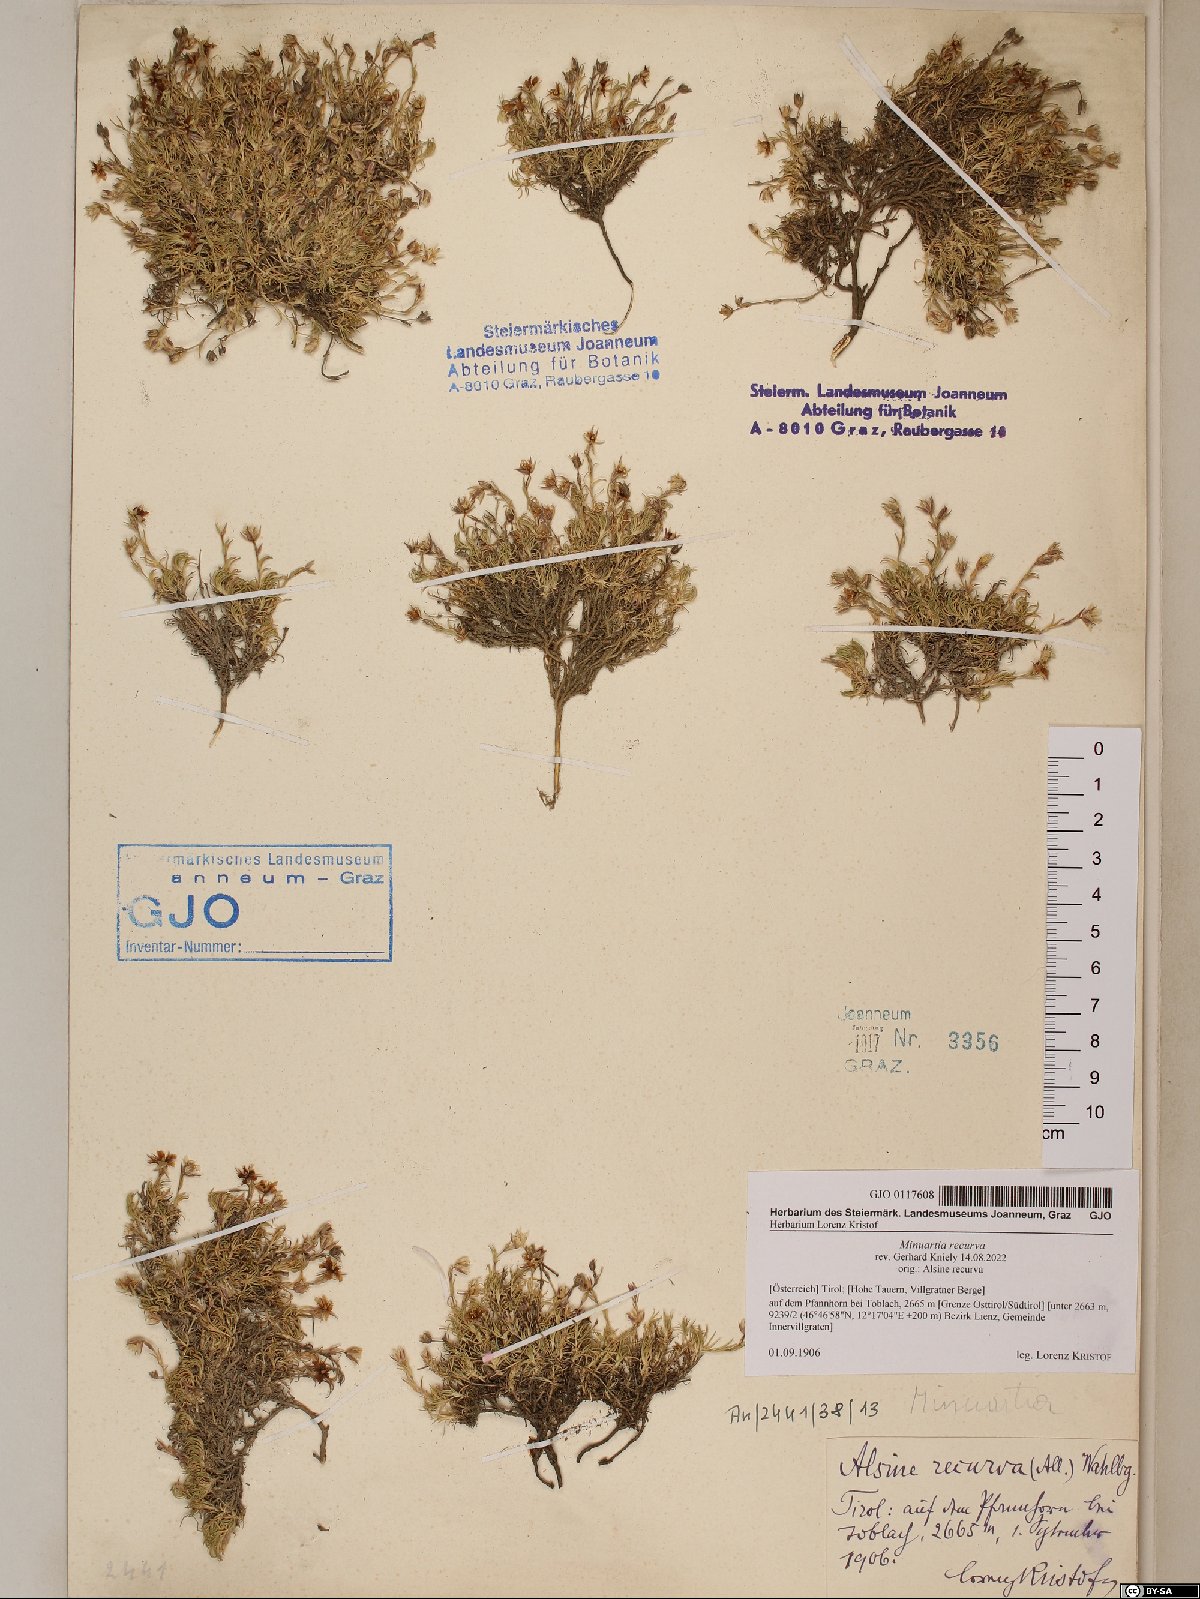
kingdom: Plantae
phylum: Tracheophyta
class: Magnoliopsida
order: Caryophyllales
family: Caryophyllaceae
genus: Minuartia
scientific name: Minuartia recurva
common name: Recurved sandwort
